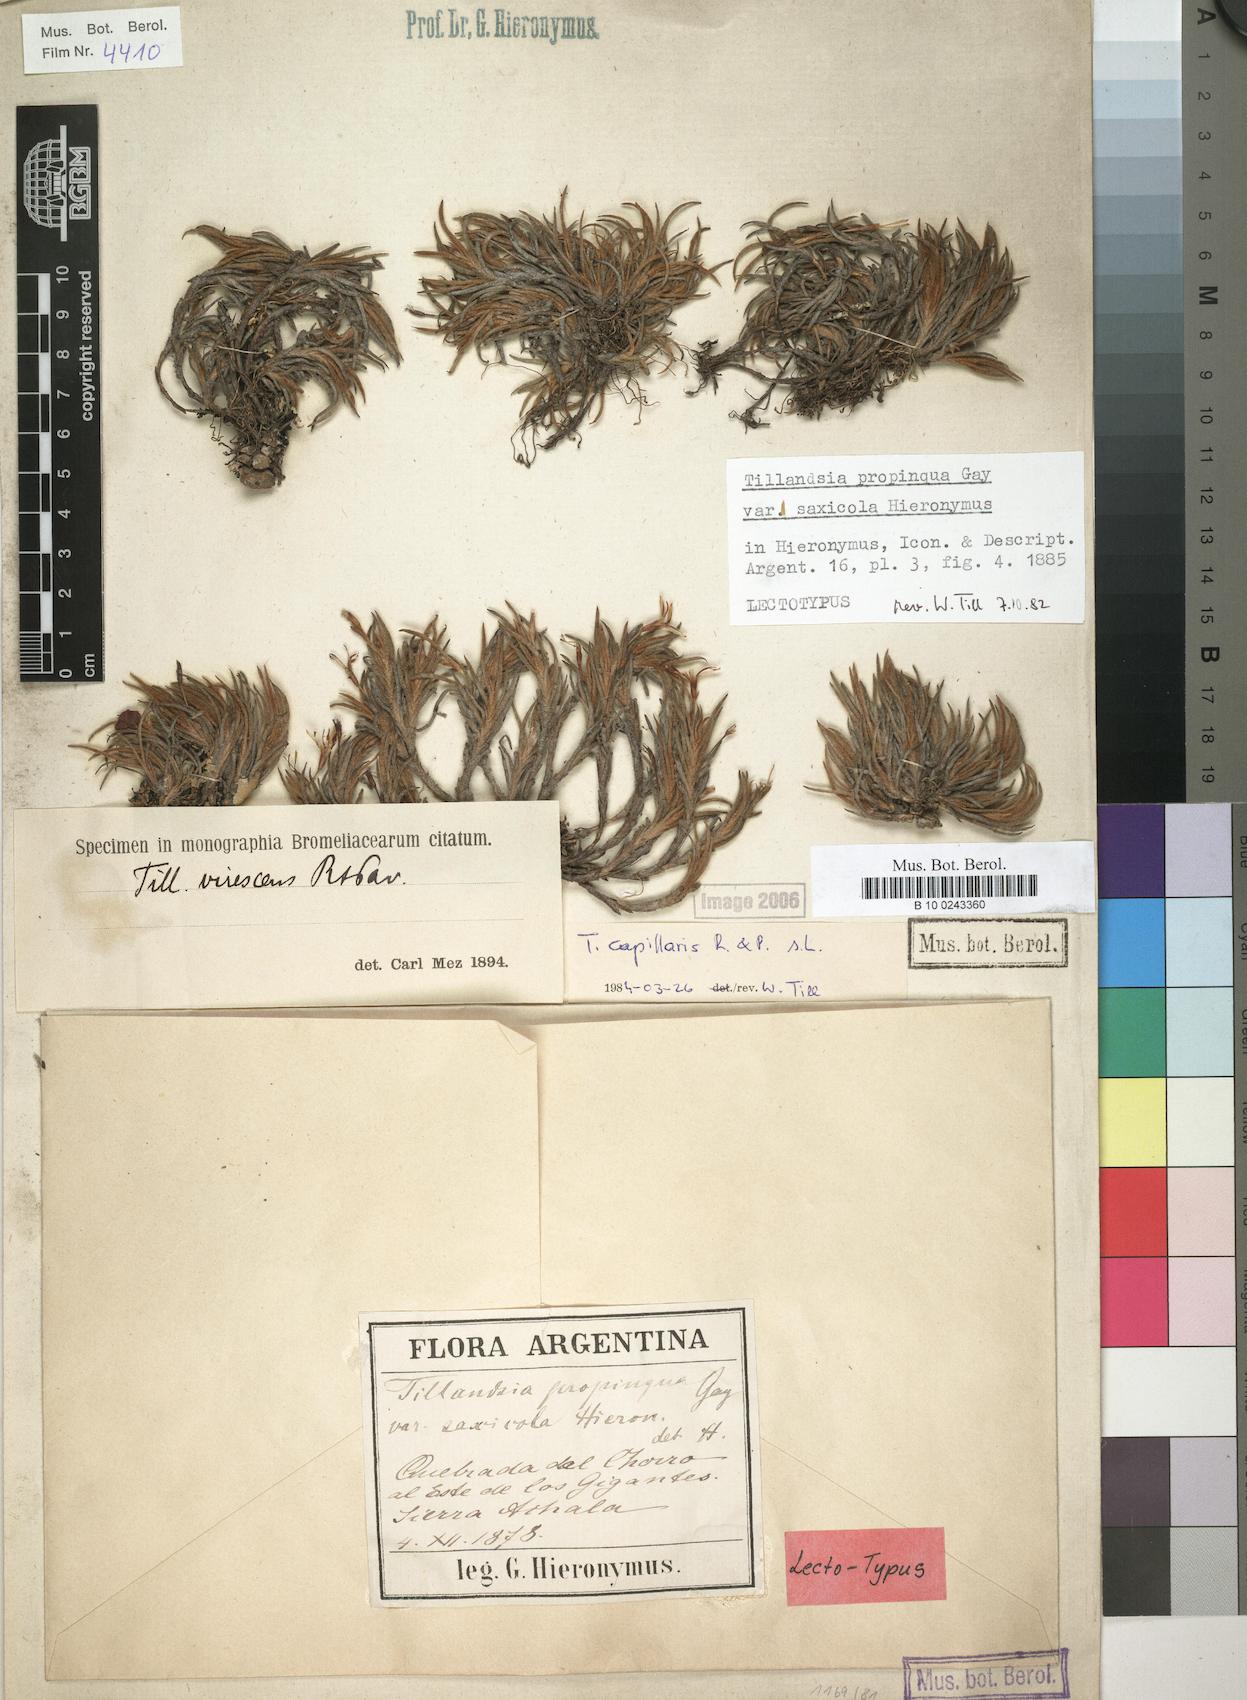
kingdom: Plantae
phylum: Tracheophyta
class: Liliopsida
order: Poales
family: Bromeliaceae
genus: Tillandsia
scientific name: Tillandsia capillaris
